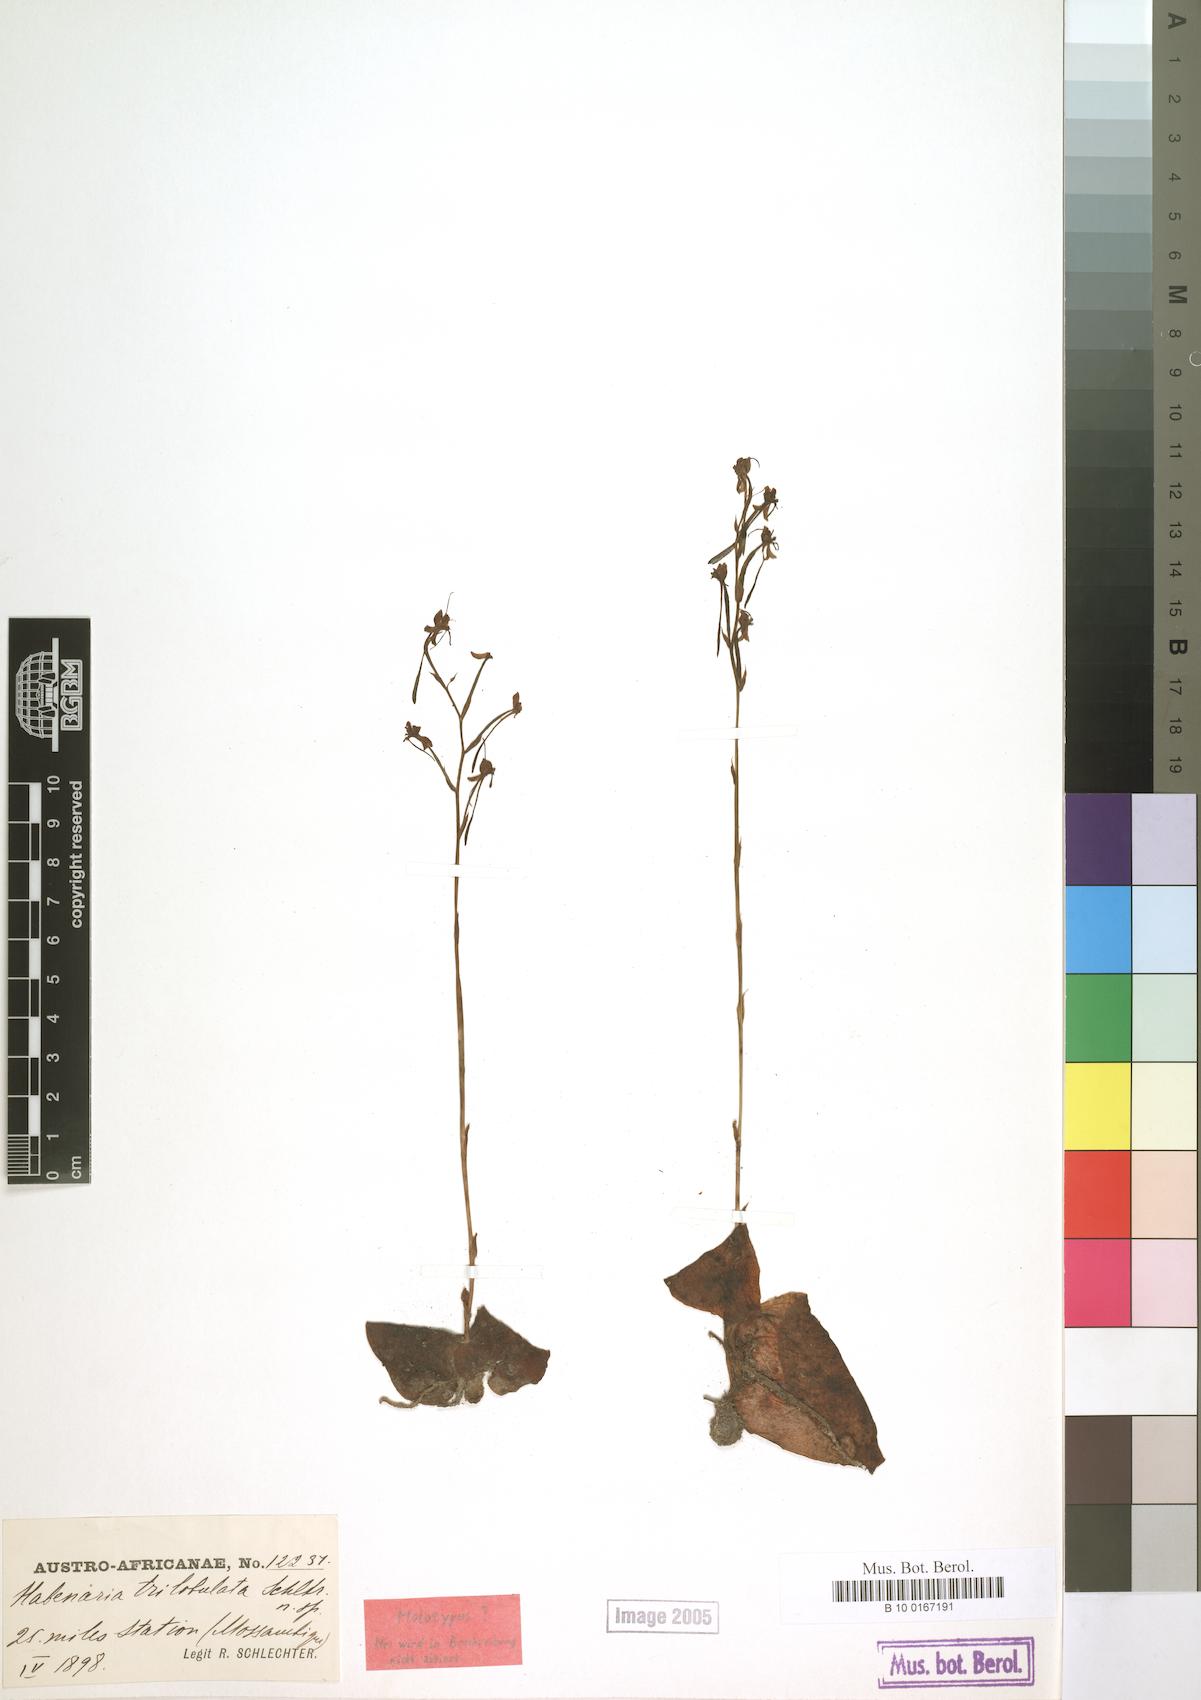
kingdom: Plantae
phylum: Tracheophyta
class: Liliopsida
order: Asparagales
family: Orchidaceae
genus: Habenaria
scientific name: Habenaria trilobulata
